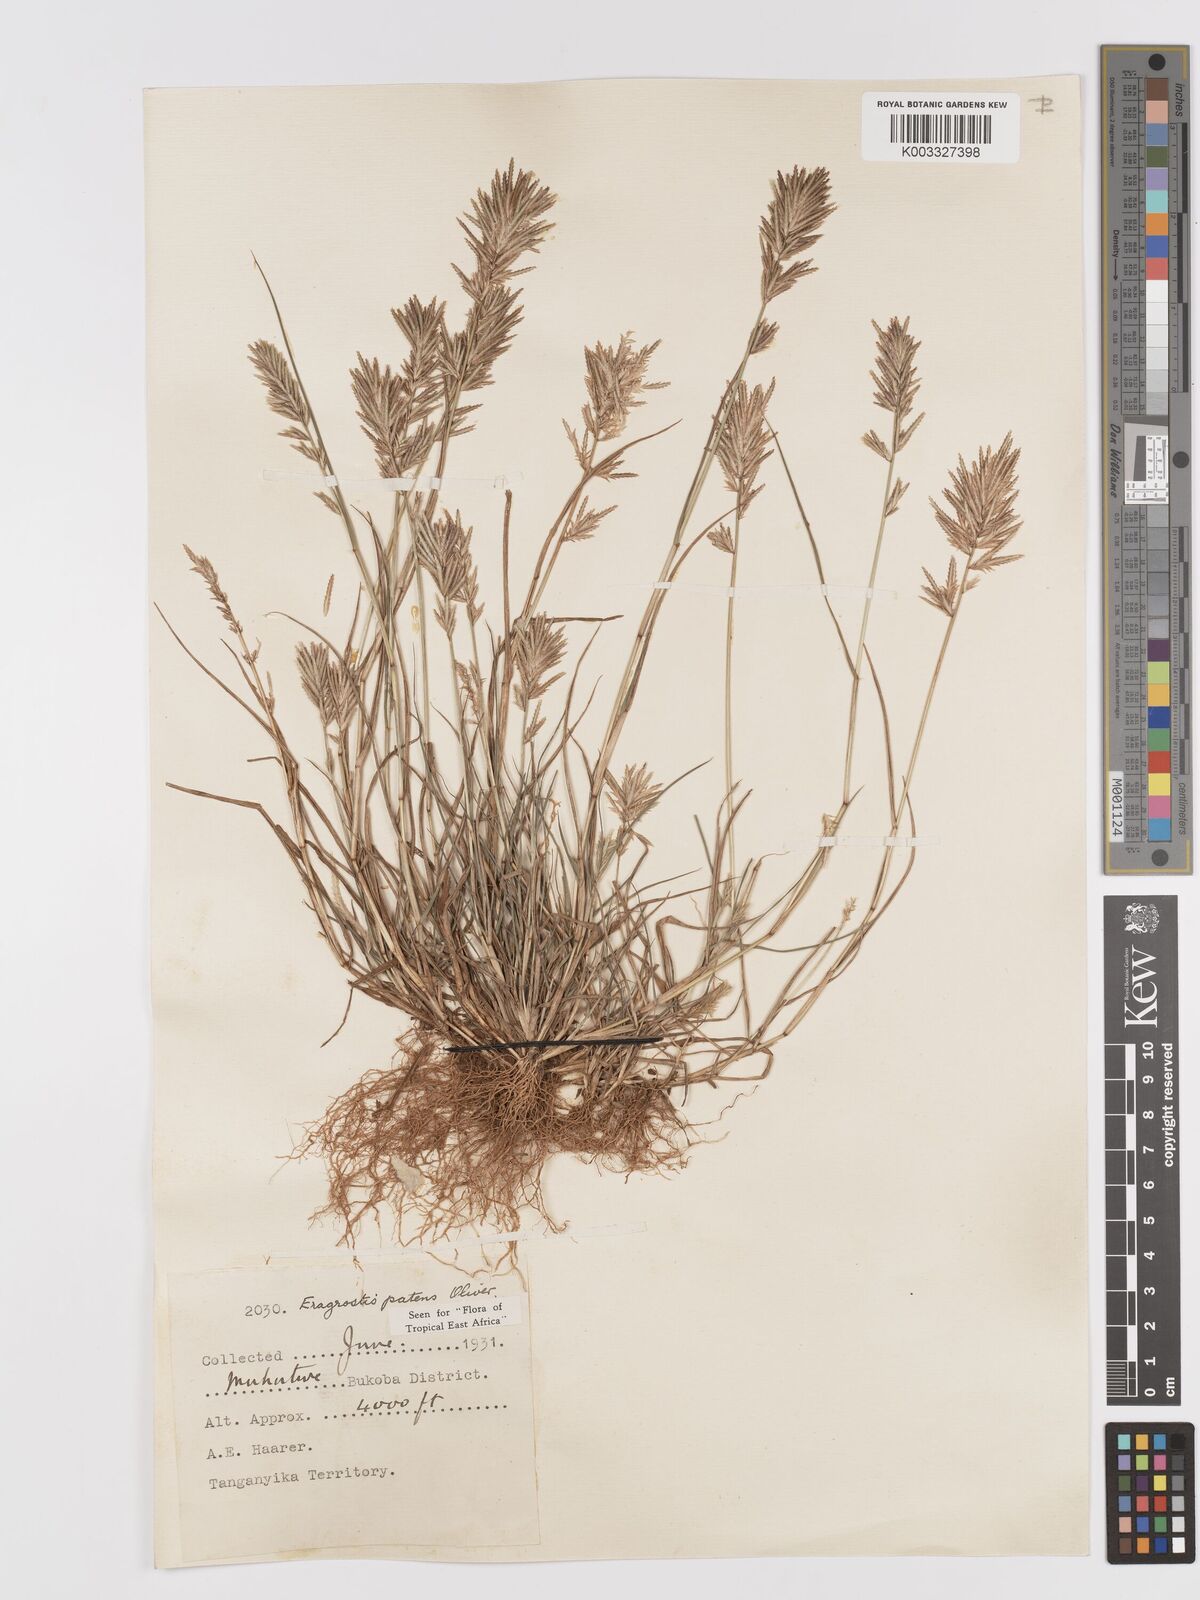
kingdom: Plantae
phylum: Tracheophyta
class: Liliopsida
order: Poales
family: Poaceae
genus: Eragrostis
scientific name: Eragrostis patens
